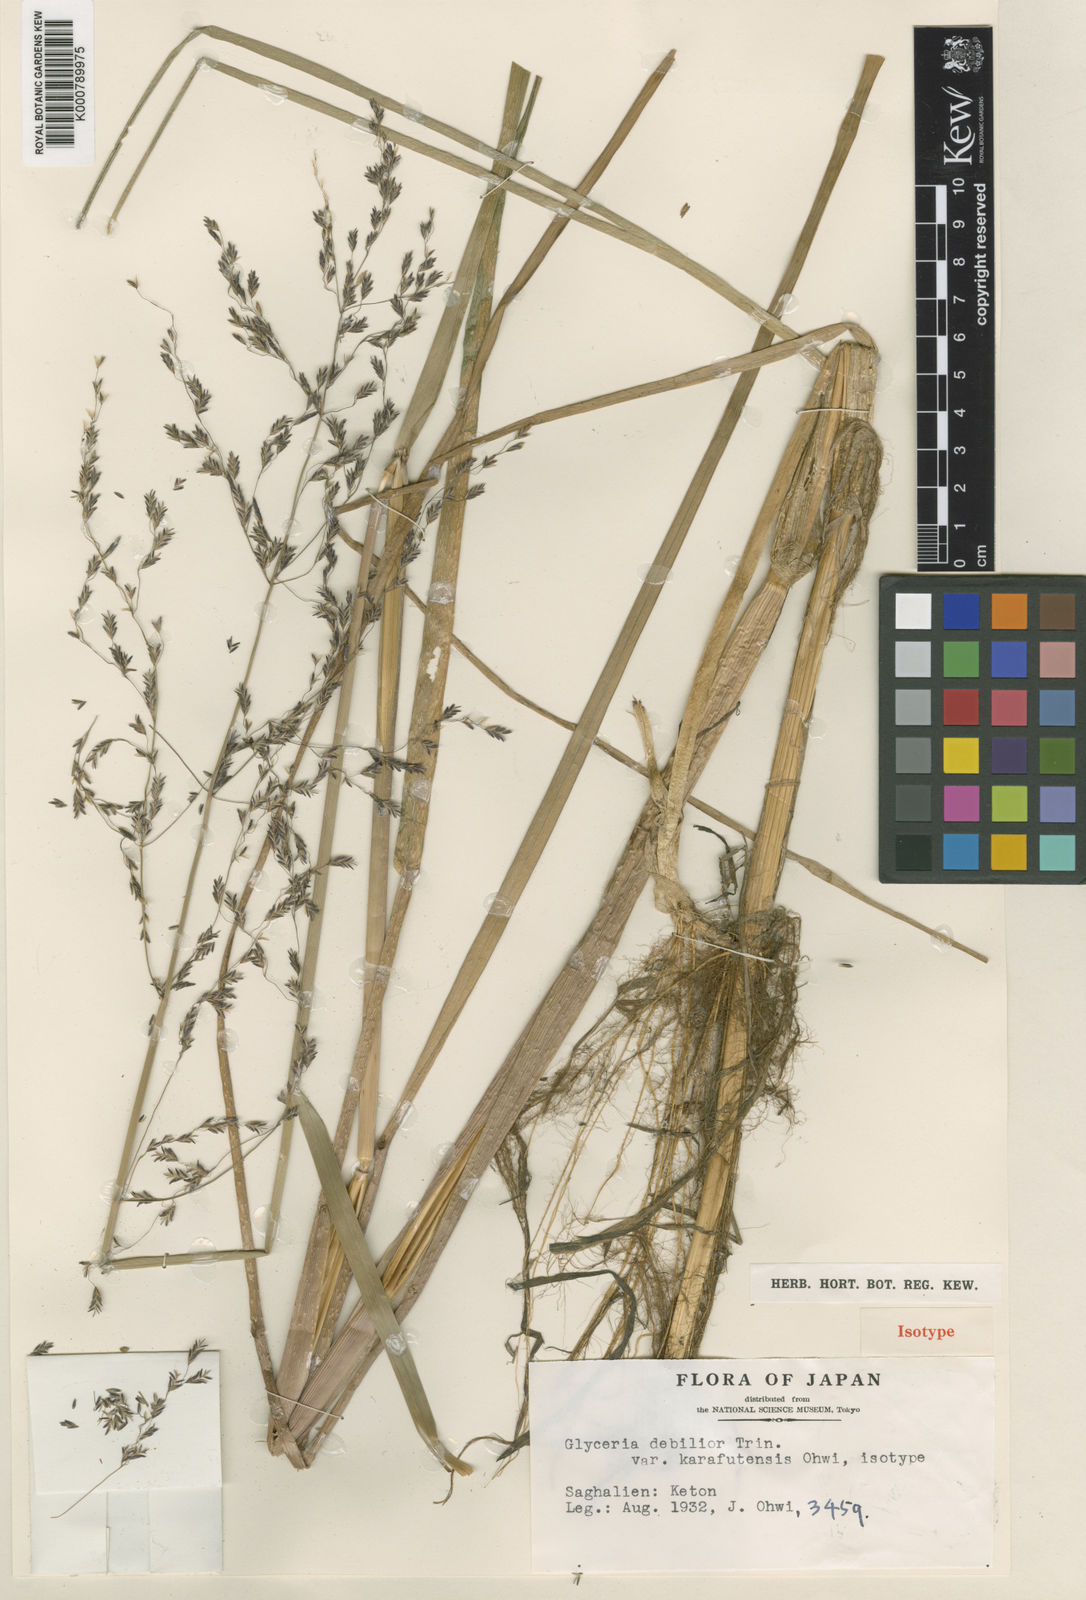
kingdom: Plantae
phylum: Tracheophyta
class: Liliopsida
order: Poales
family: Poaceae
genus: Glyceria
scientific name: Glyceria lithuanica
